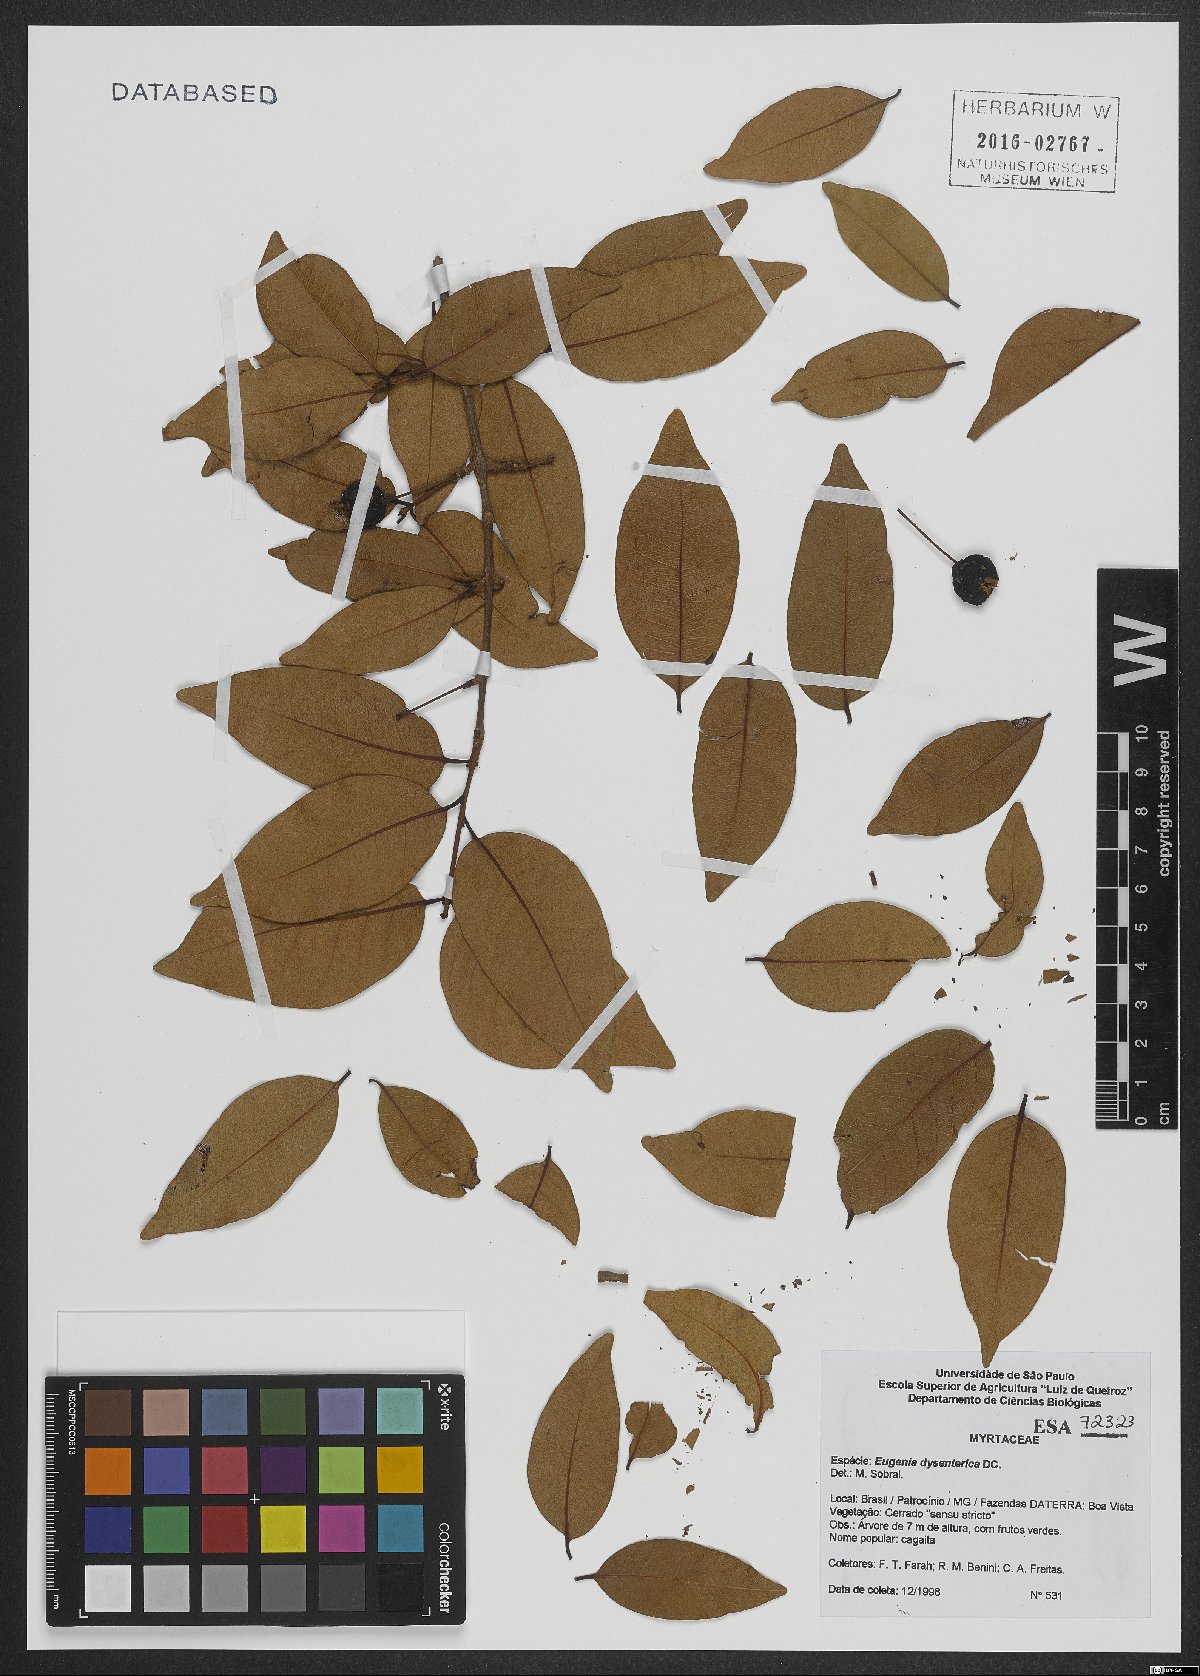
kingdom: Plantae
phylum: Tracheophyta
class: Magnoliopsida
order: Myrtales
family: Myrtaceae
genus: Eugenia
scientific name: Eugenia dysenterica
